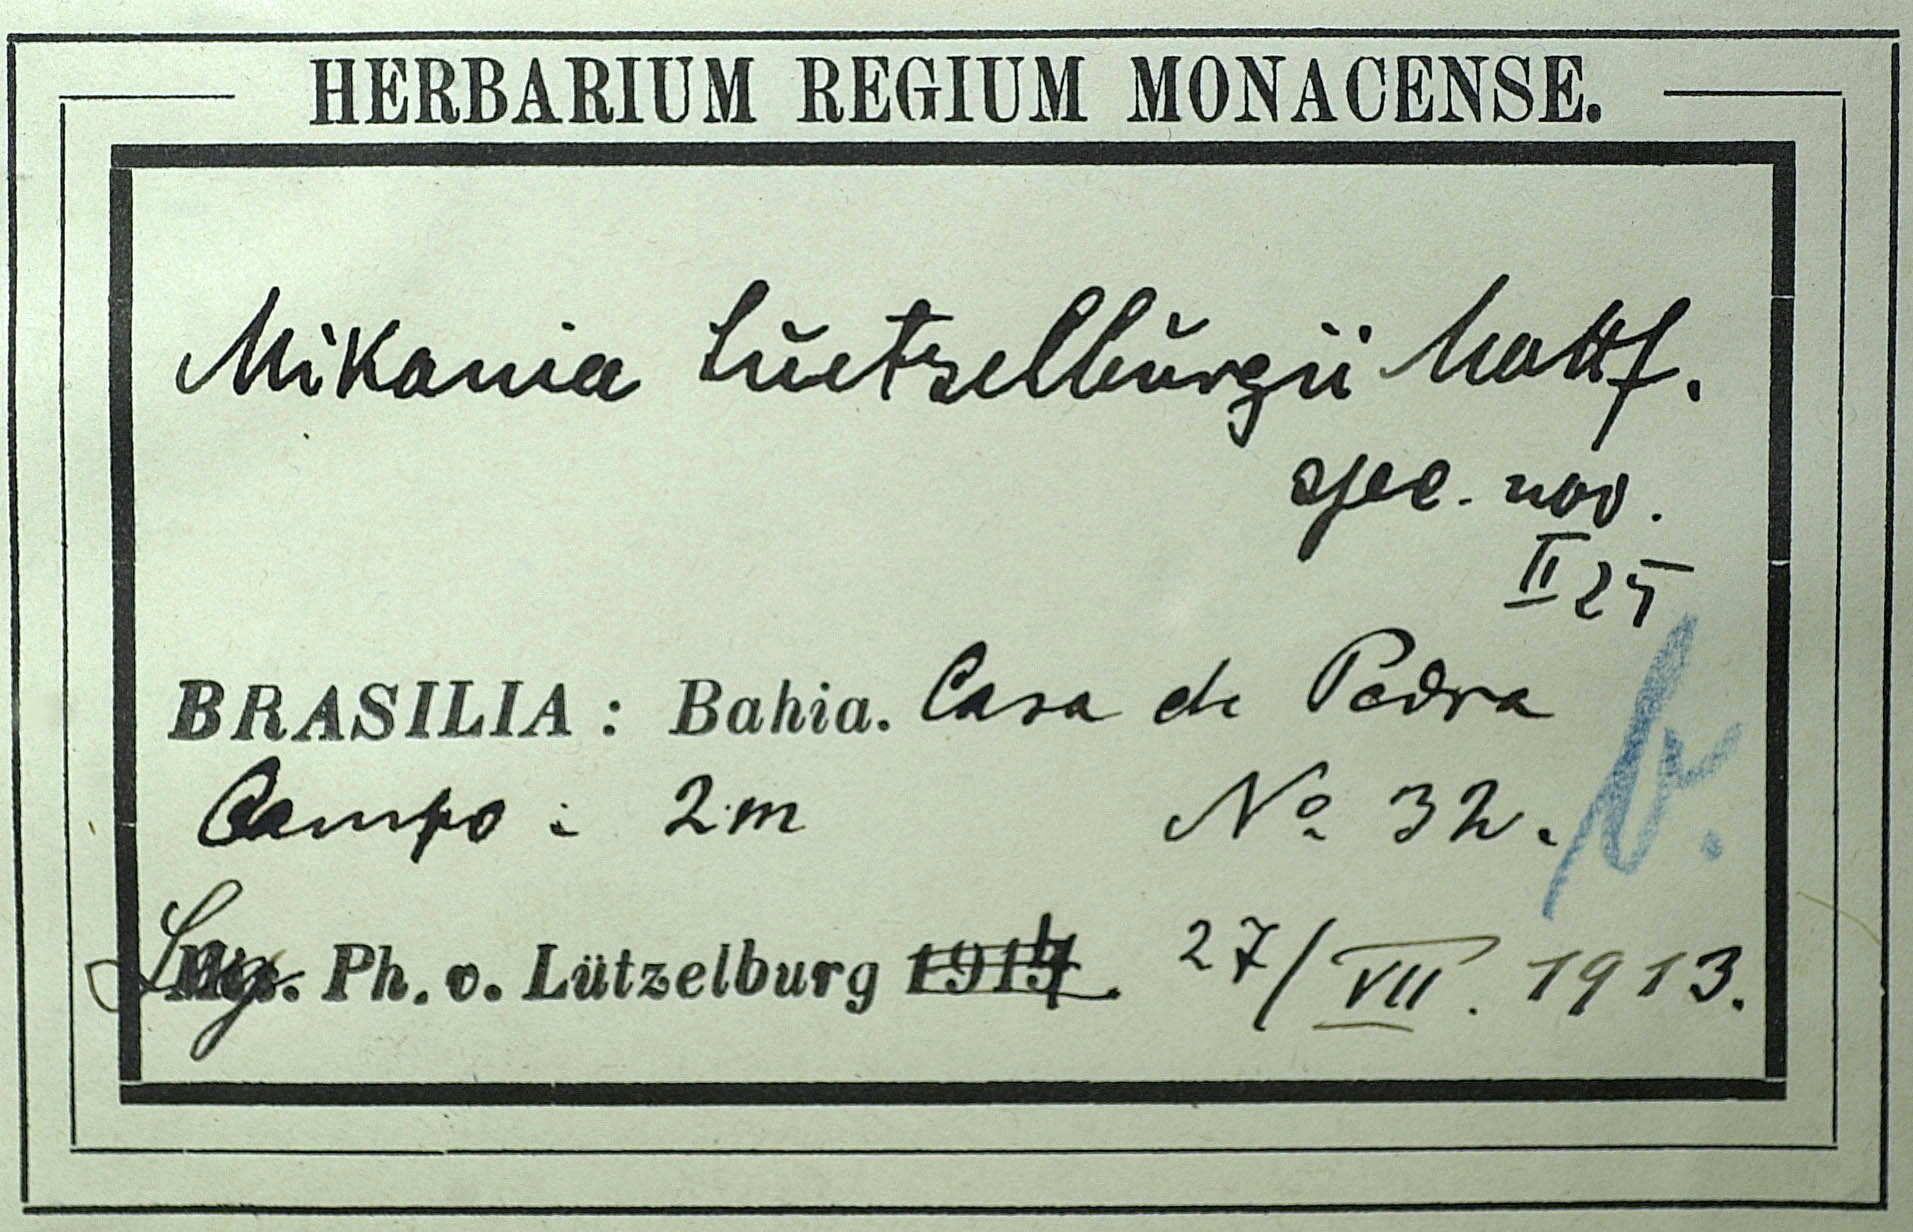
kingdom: Plantae
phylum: Tracheophyta
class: Magnoliopsida
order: Asterales
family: Asteraceae
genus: Mikania
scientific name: Mikania luetzelburgii
